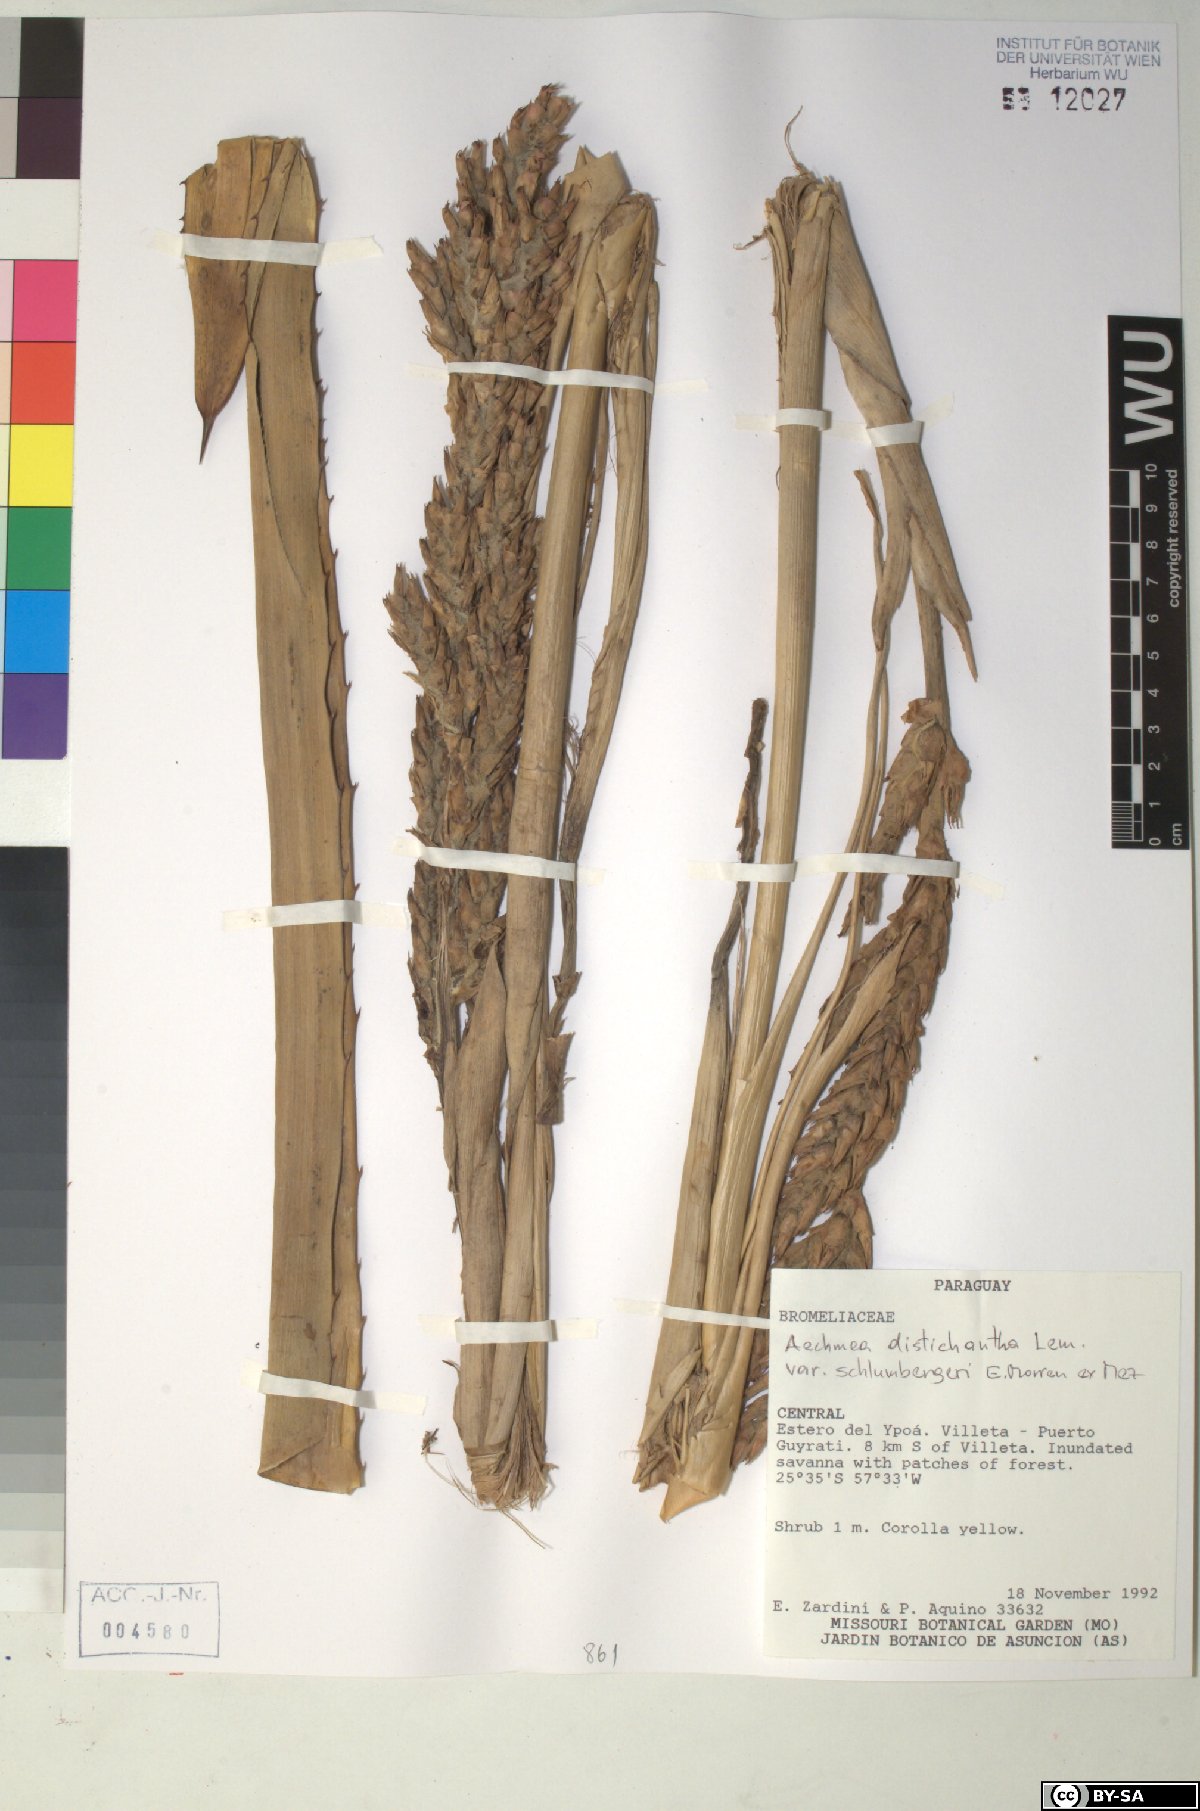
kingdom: Plantae
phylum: Tracheophyta
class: Liliopsida
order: Poales
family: Bromeliaceae
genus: Aechmea
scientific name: Aechmea distichantha
